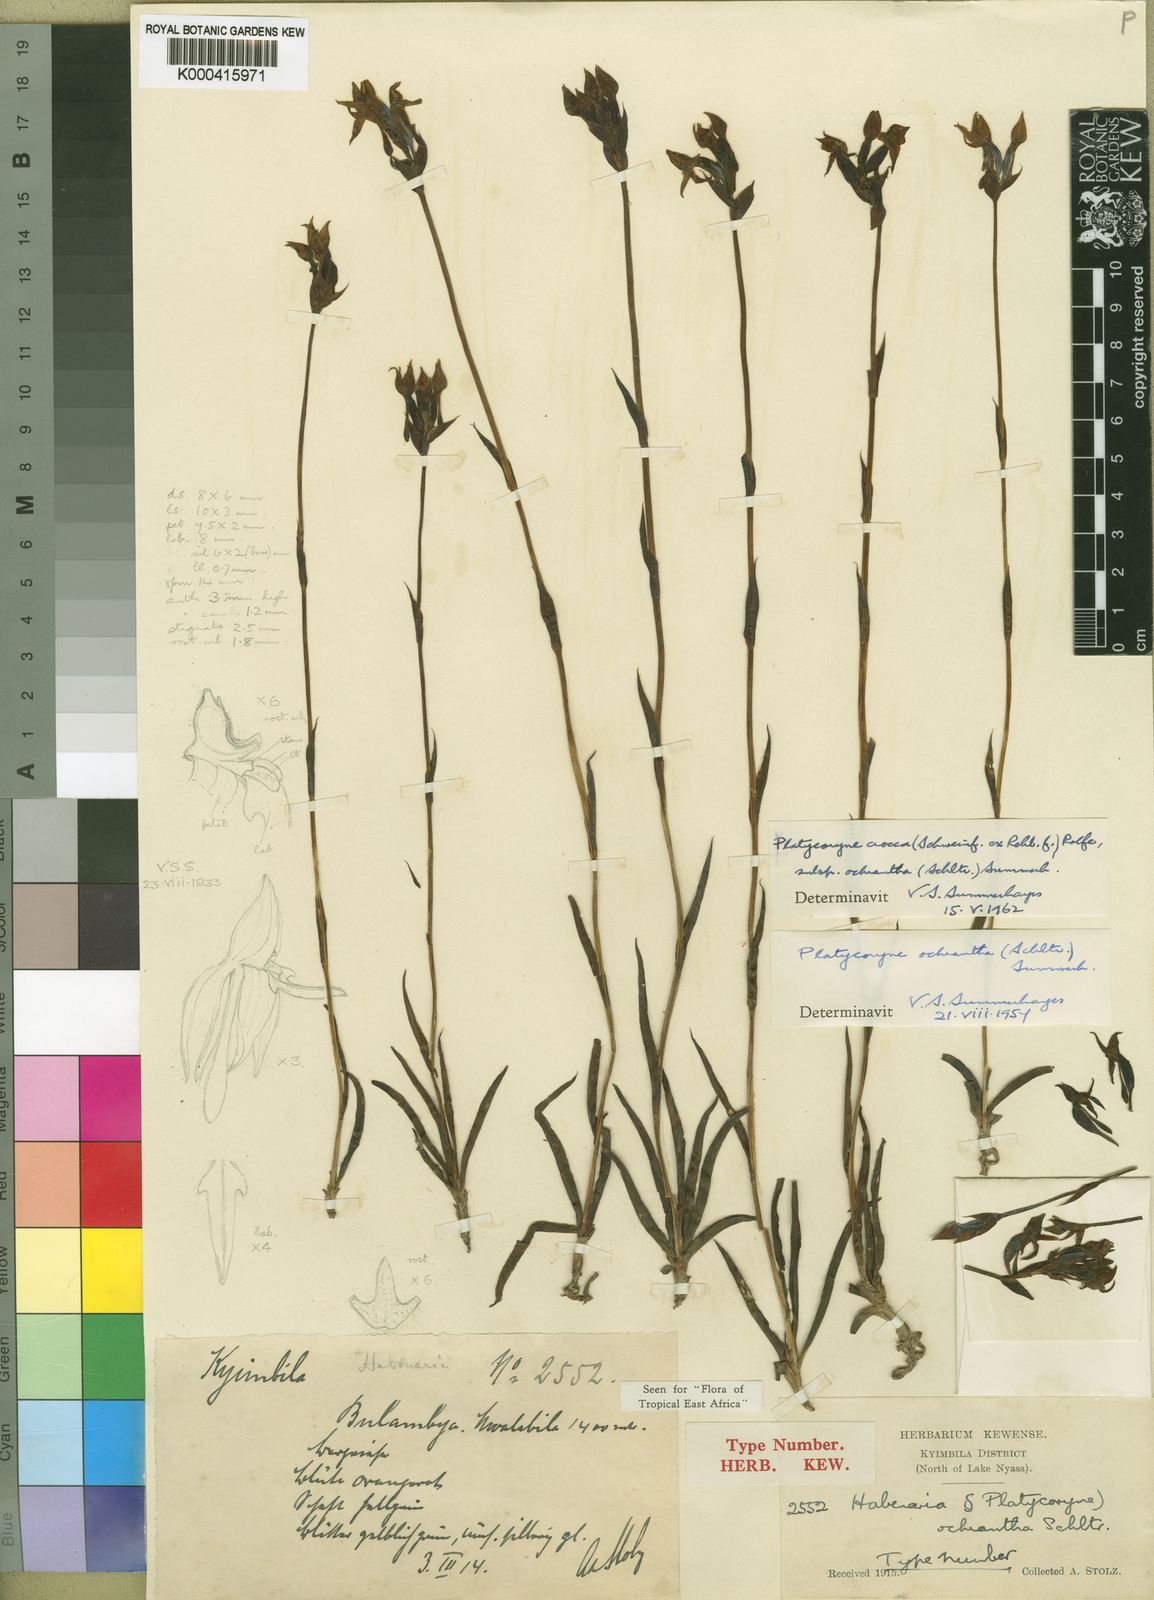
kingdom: Plantae
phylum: Tracheophyta
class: Liliopsida
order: Asparagales
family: Orchidaceae
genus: Platycoryne
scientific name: Platycoryne crocea
